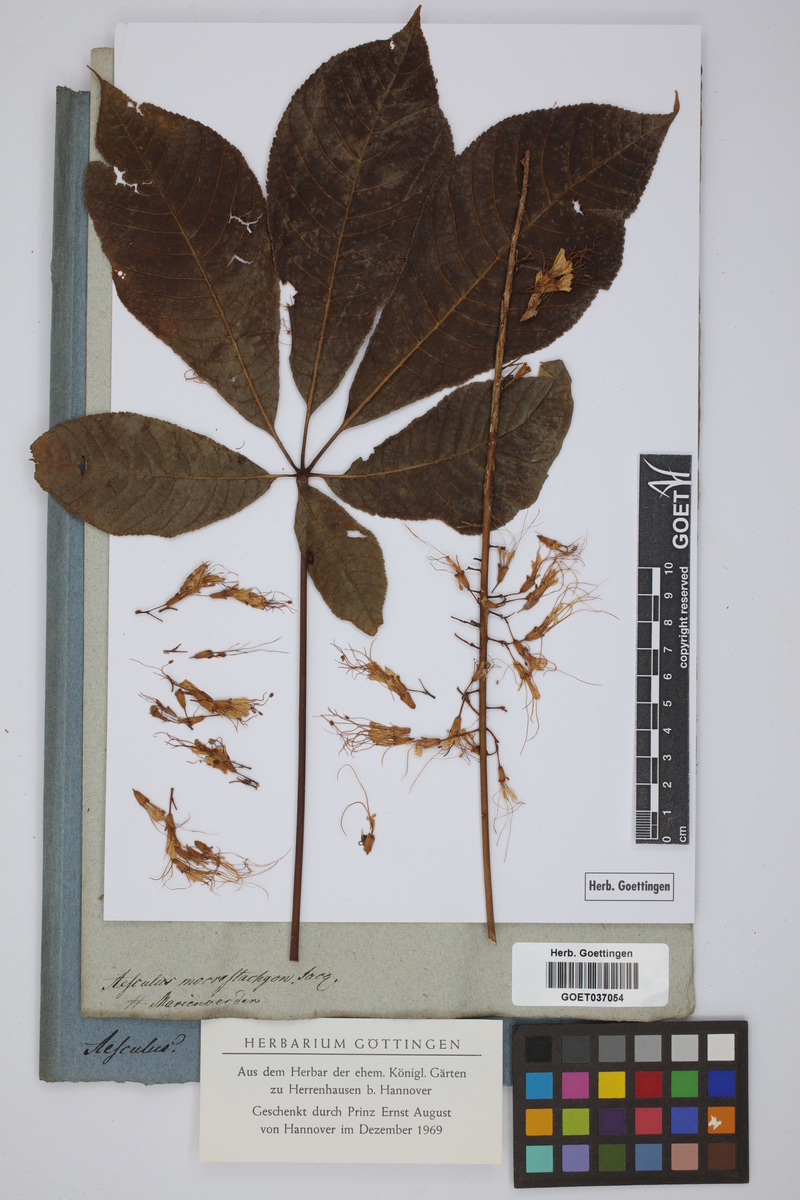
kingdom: Plantae
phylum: Tracheophyta
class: Magnoliopsida
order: Sapindales
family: Sapindaceae
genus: Aesculus
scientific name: Aesculus parviflora
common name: Bottlebrush buckeye
